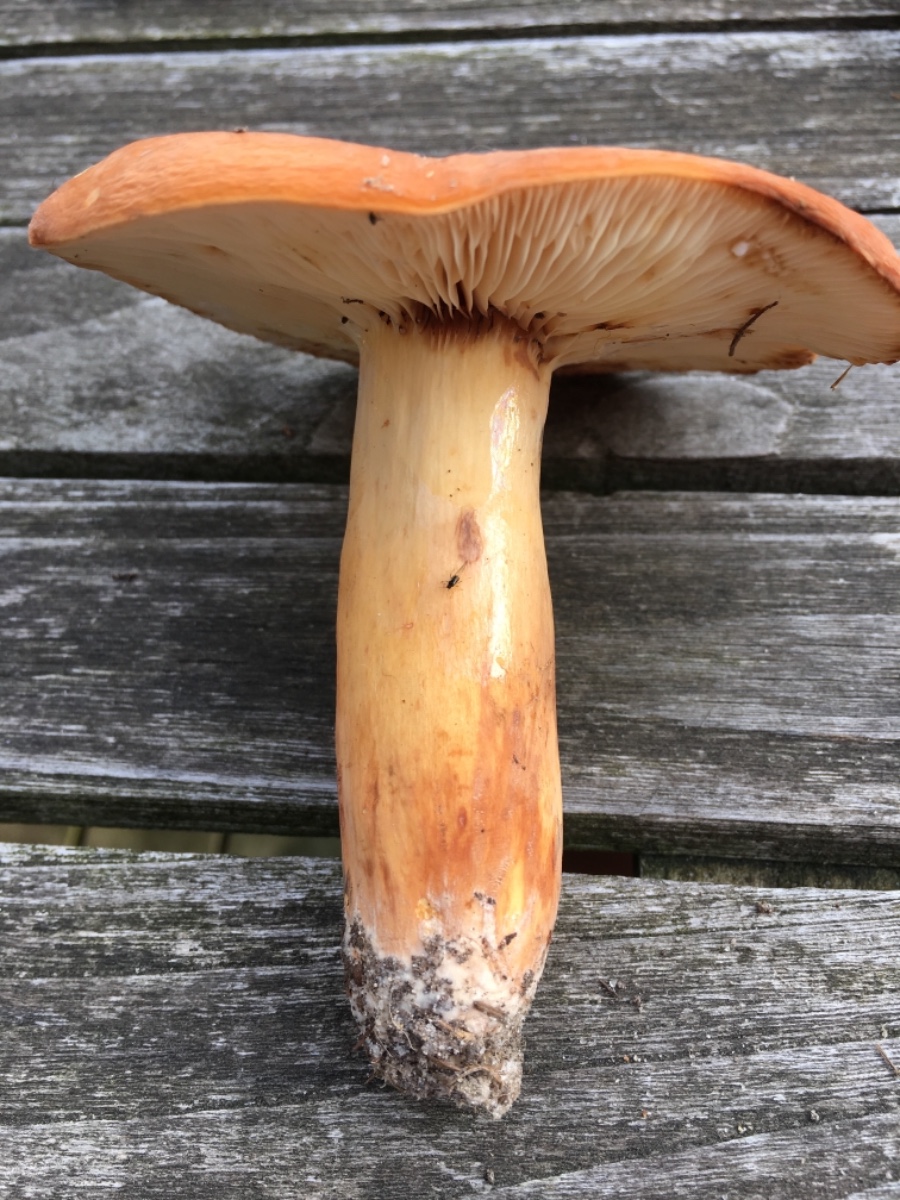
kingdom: Fungi
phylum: Basidiomycota
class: Agaricomycetes
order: Russulales
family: Russulaceae
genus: Lactifluus
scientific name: Lactifluus volemus
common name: spiselig mælkehat
